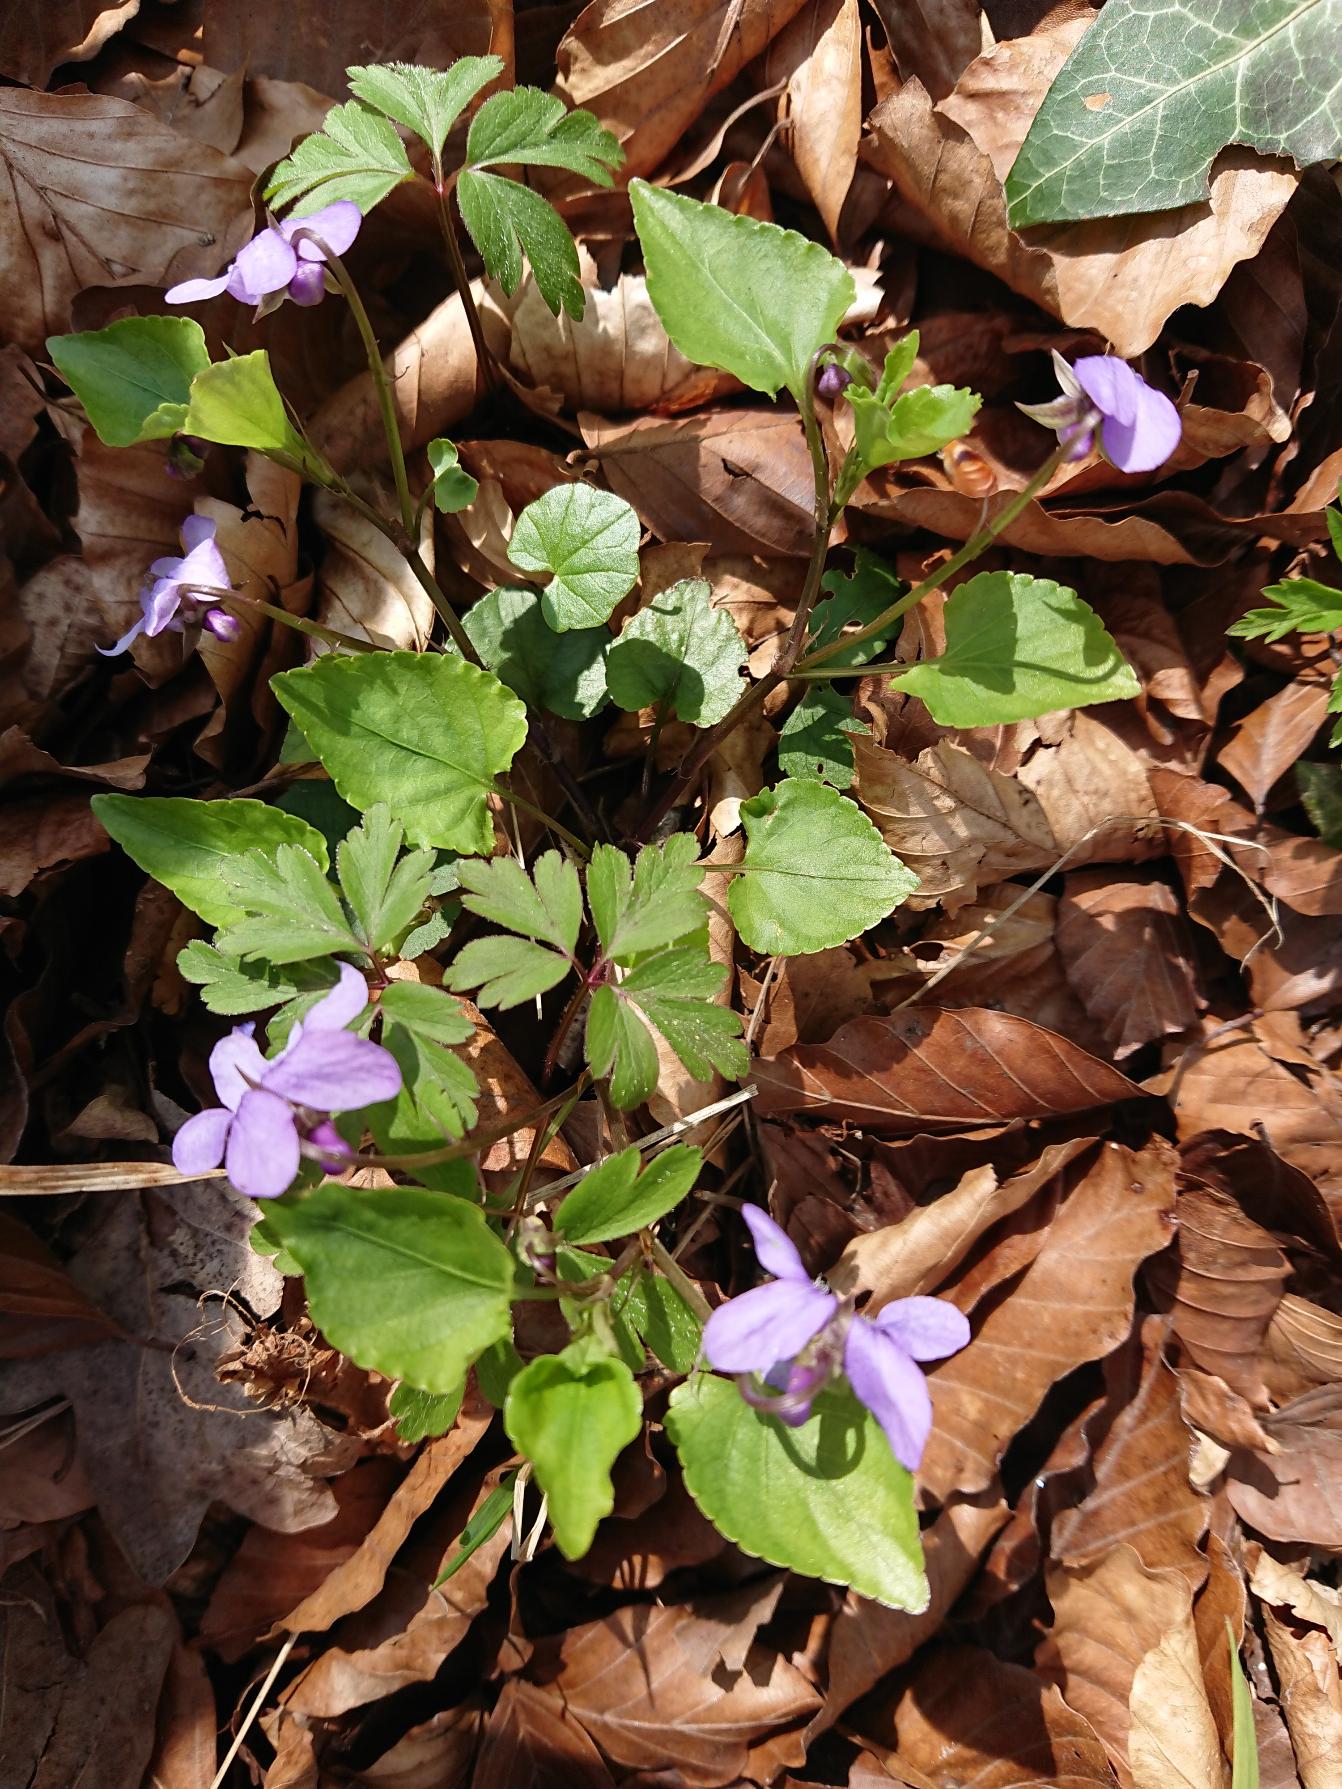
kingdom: Plantae
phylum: Tracheophyta
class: Magnoliopsida
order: Malpighiales
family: Violaceae
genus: Viola
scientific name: Viola reichenbachiana
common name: Skov-viol
